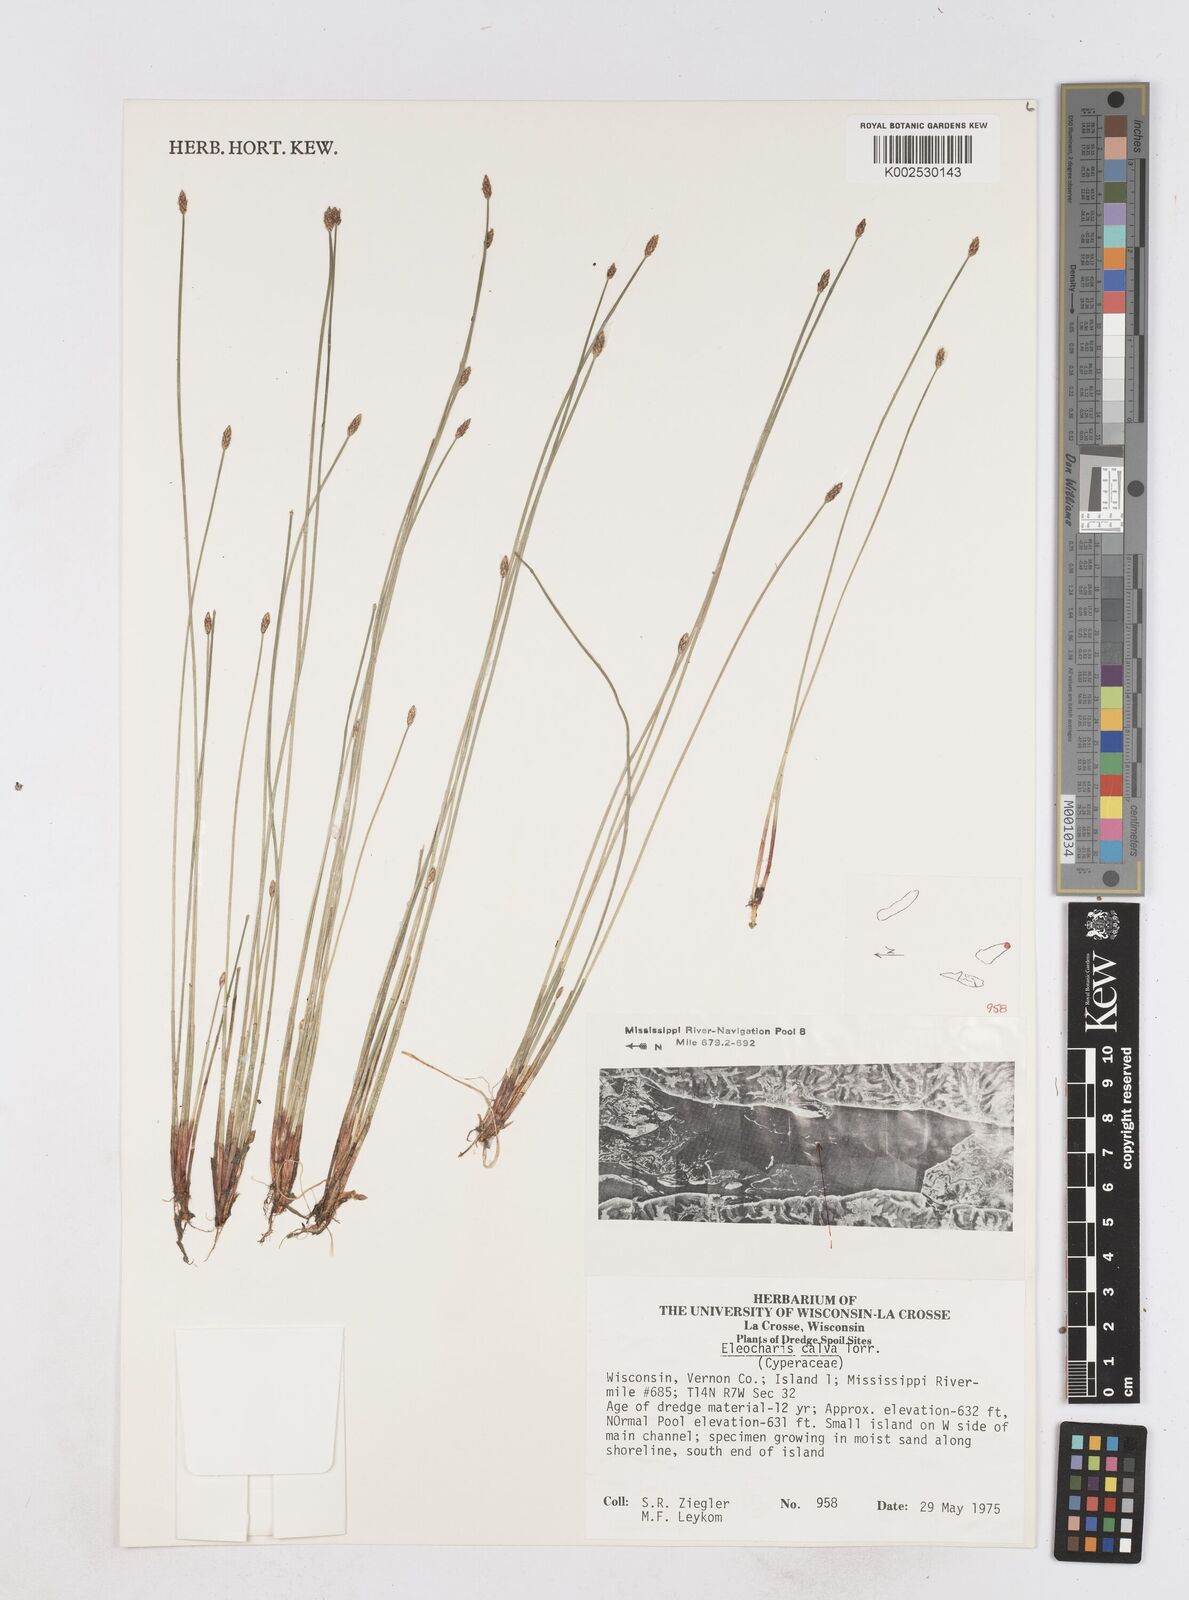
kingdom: Plantae
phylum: Tracheophyta
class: Liliopsida
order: Poales
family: Cyperaceae
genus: Eleocharis
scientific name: Eleocharis erythropoda
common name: Bald spikerush
